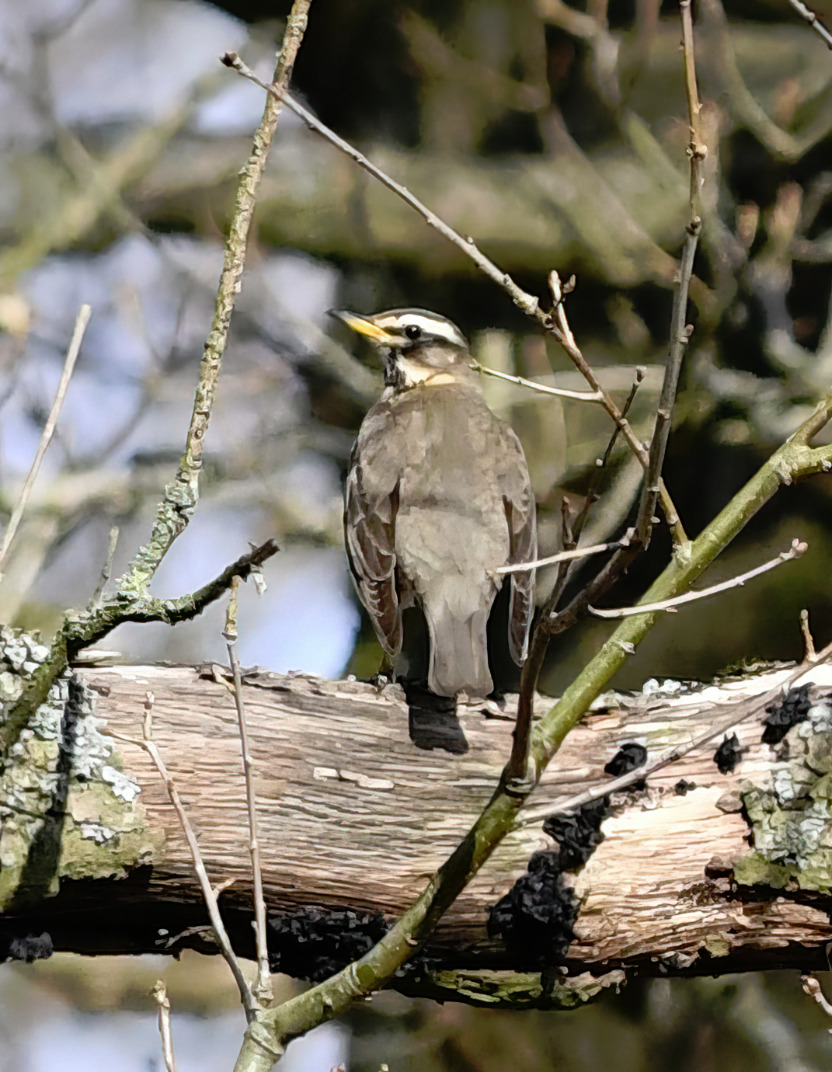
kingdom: Animalia
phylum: Chordata
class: Aves
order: Passeriformes
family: Turdidae
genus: Turdus
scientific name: Turdus iliacus
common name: Vindrossel
